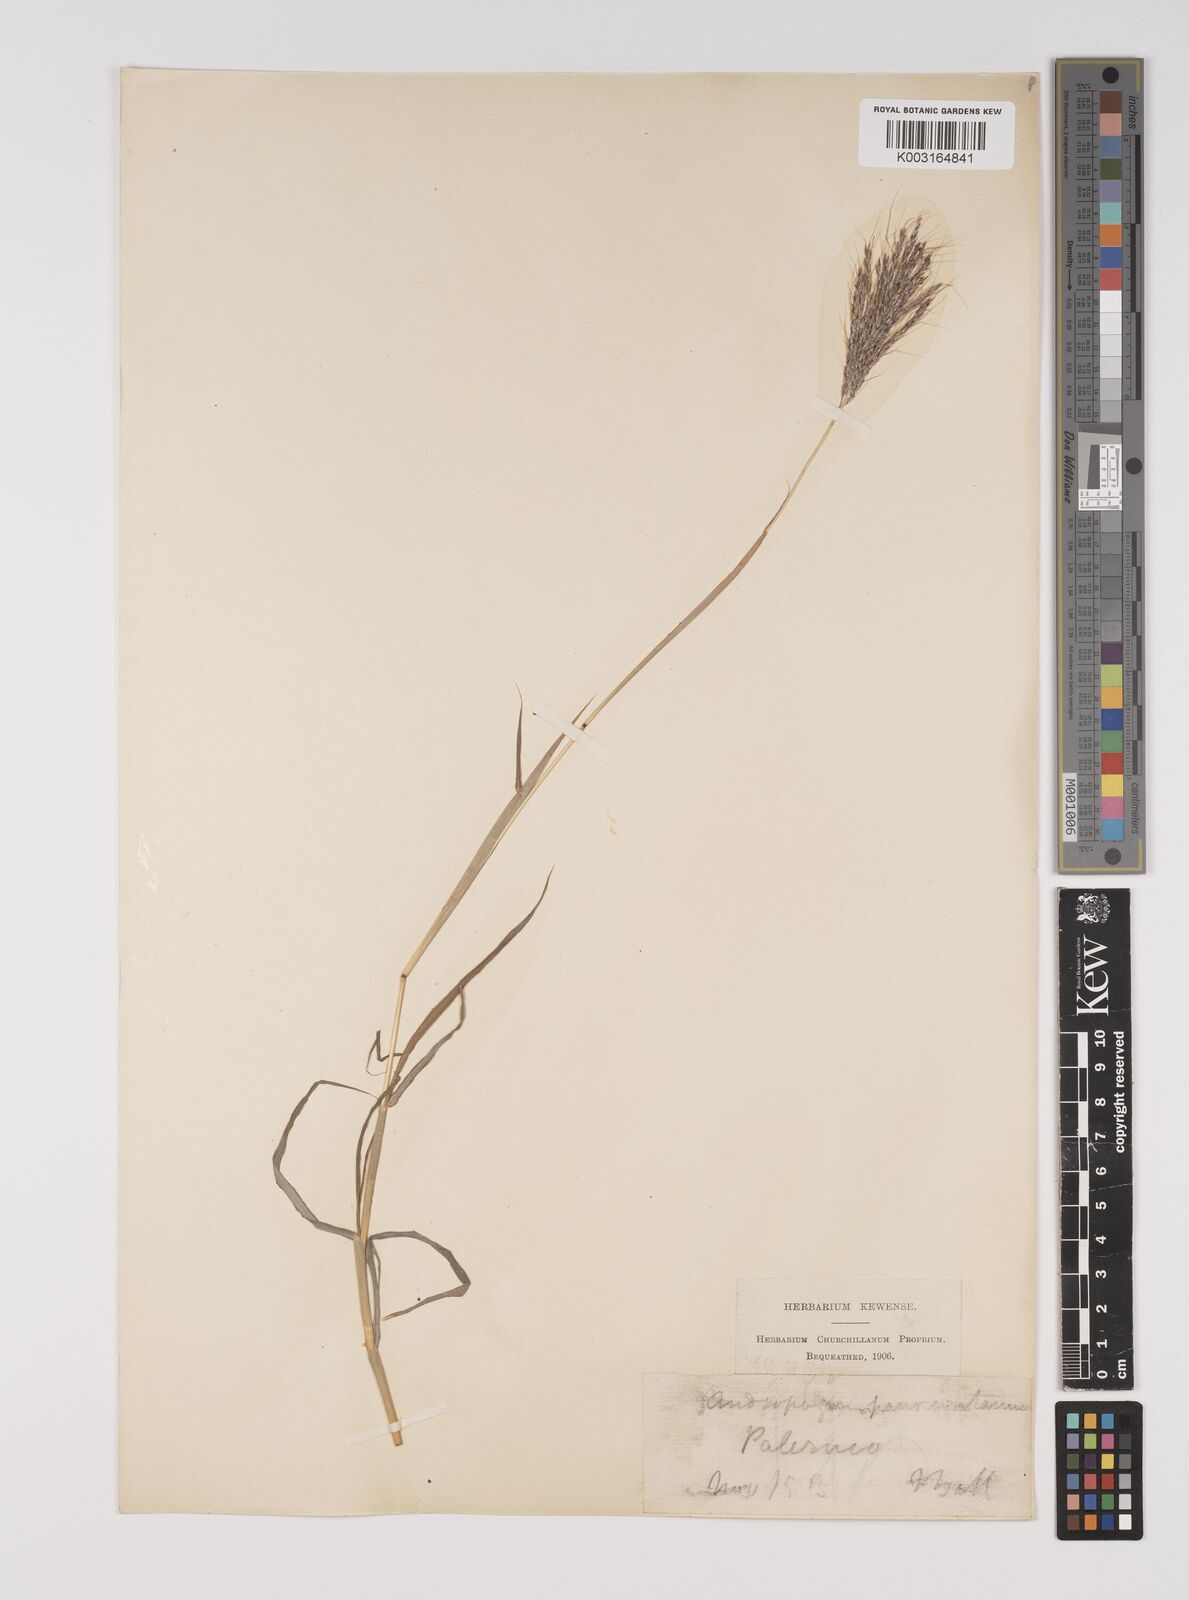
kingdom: Plantae
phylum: Tracheophyta
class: Liliopsida
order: Poales
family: Poaceae
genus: Bothriochloa
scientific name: Bothriochloa insculpta
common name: Creeping-bluegrass
